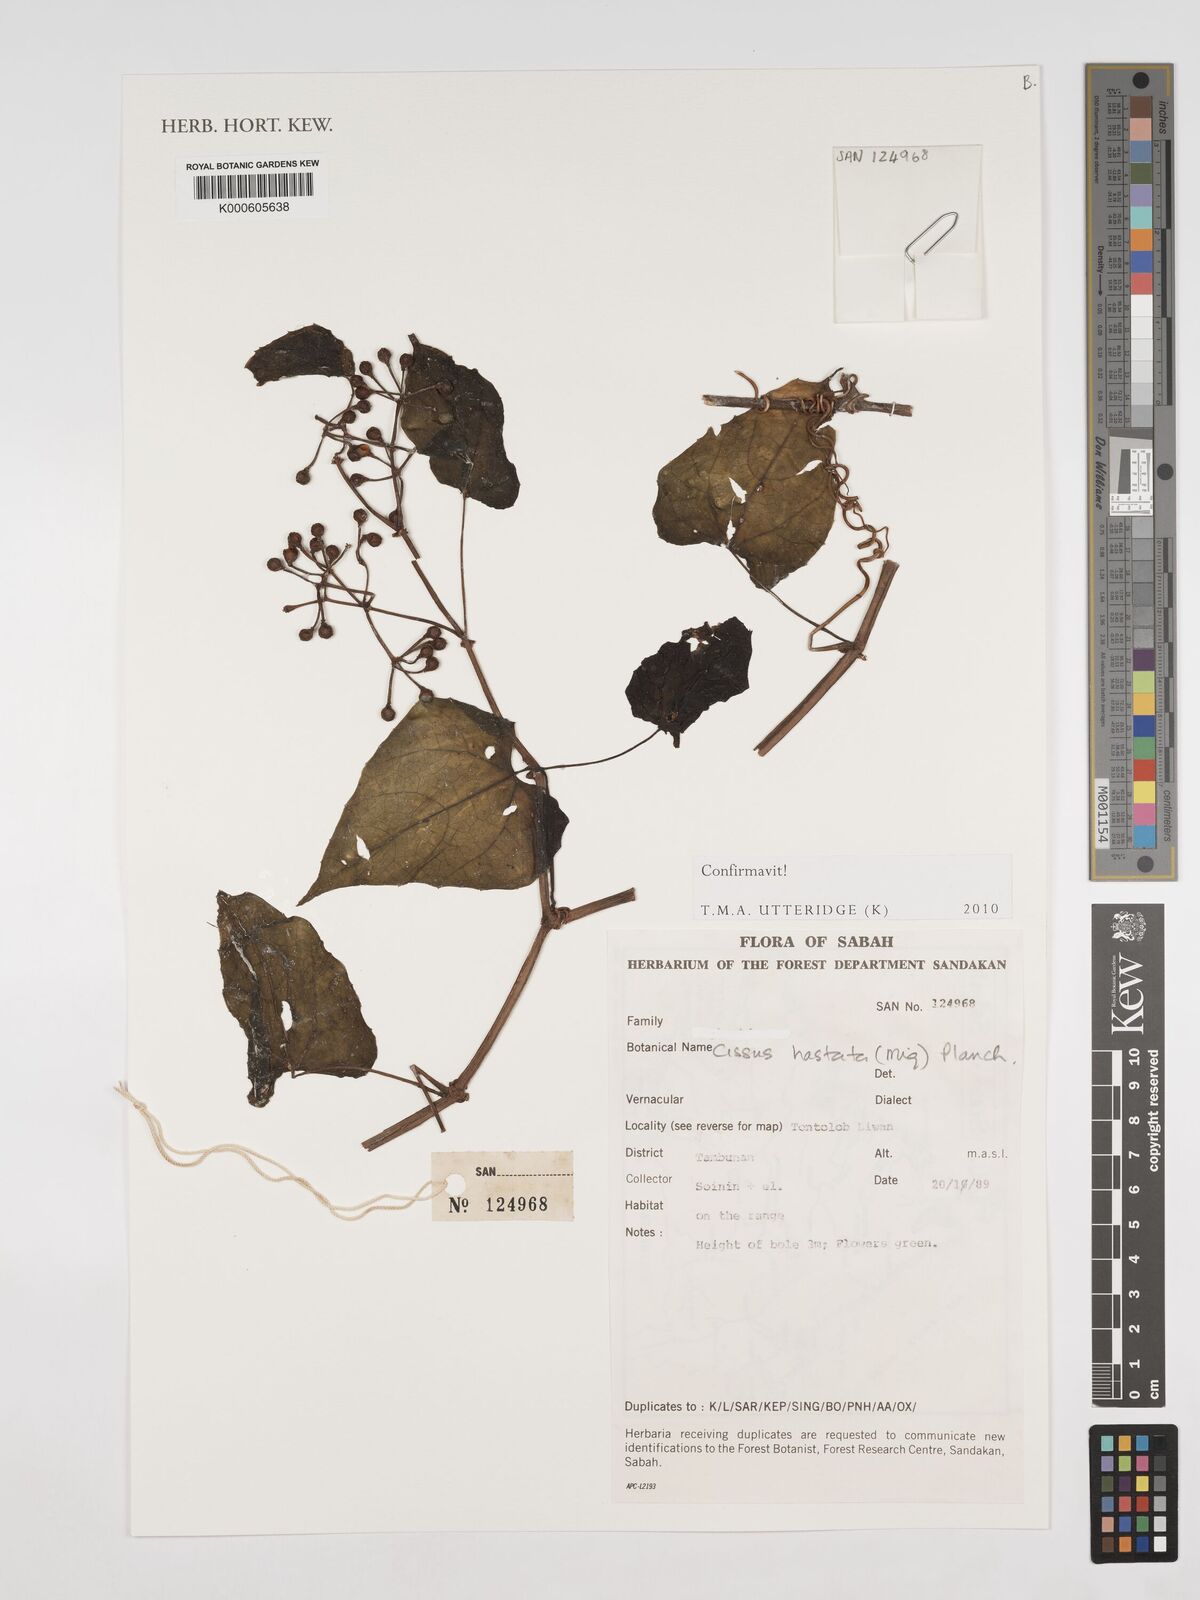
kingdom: Plantae
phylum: Tracheophyta
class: Magnoliopsida
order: Vitales
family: Vitaceae
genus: Cissus
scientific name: Cissus
